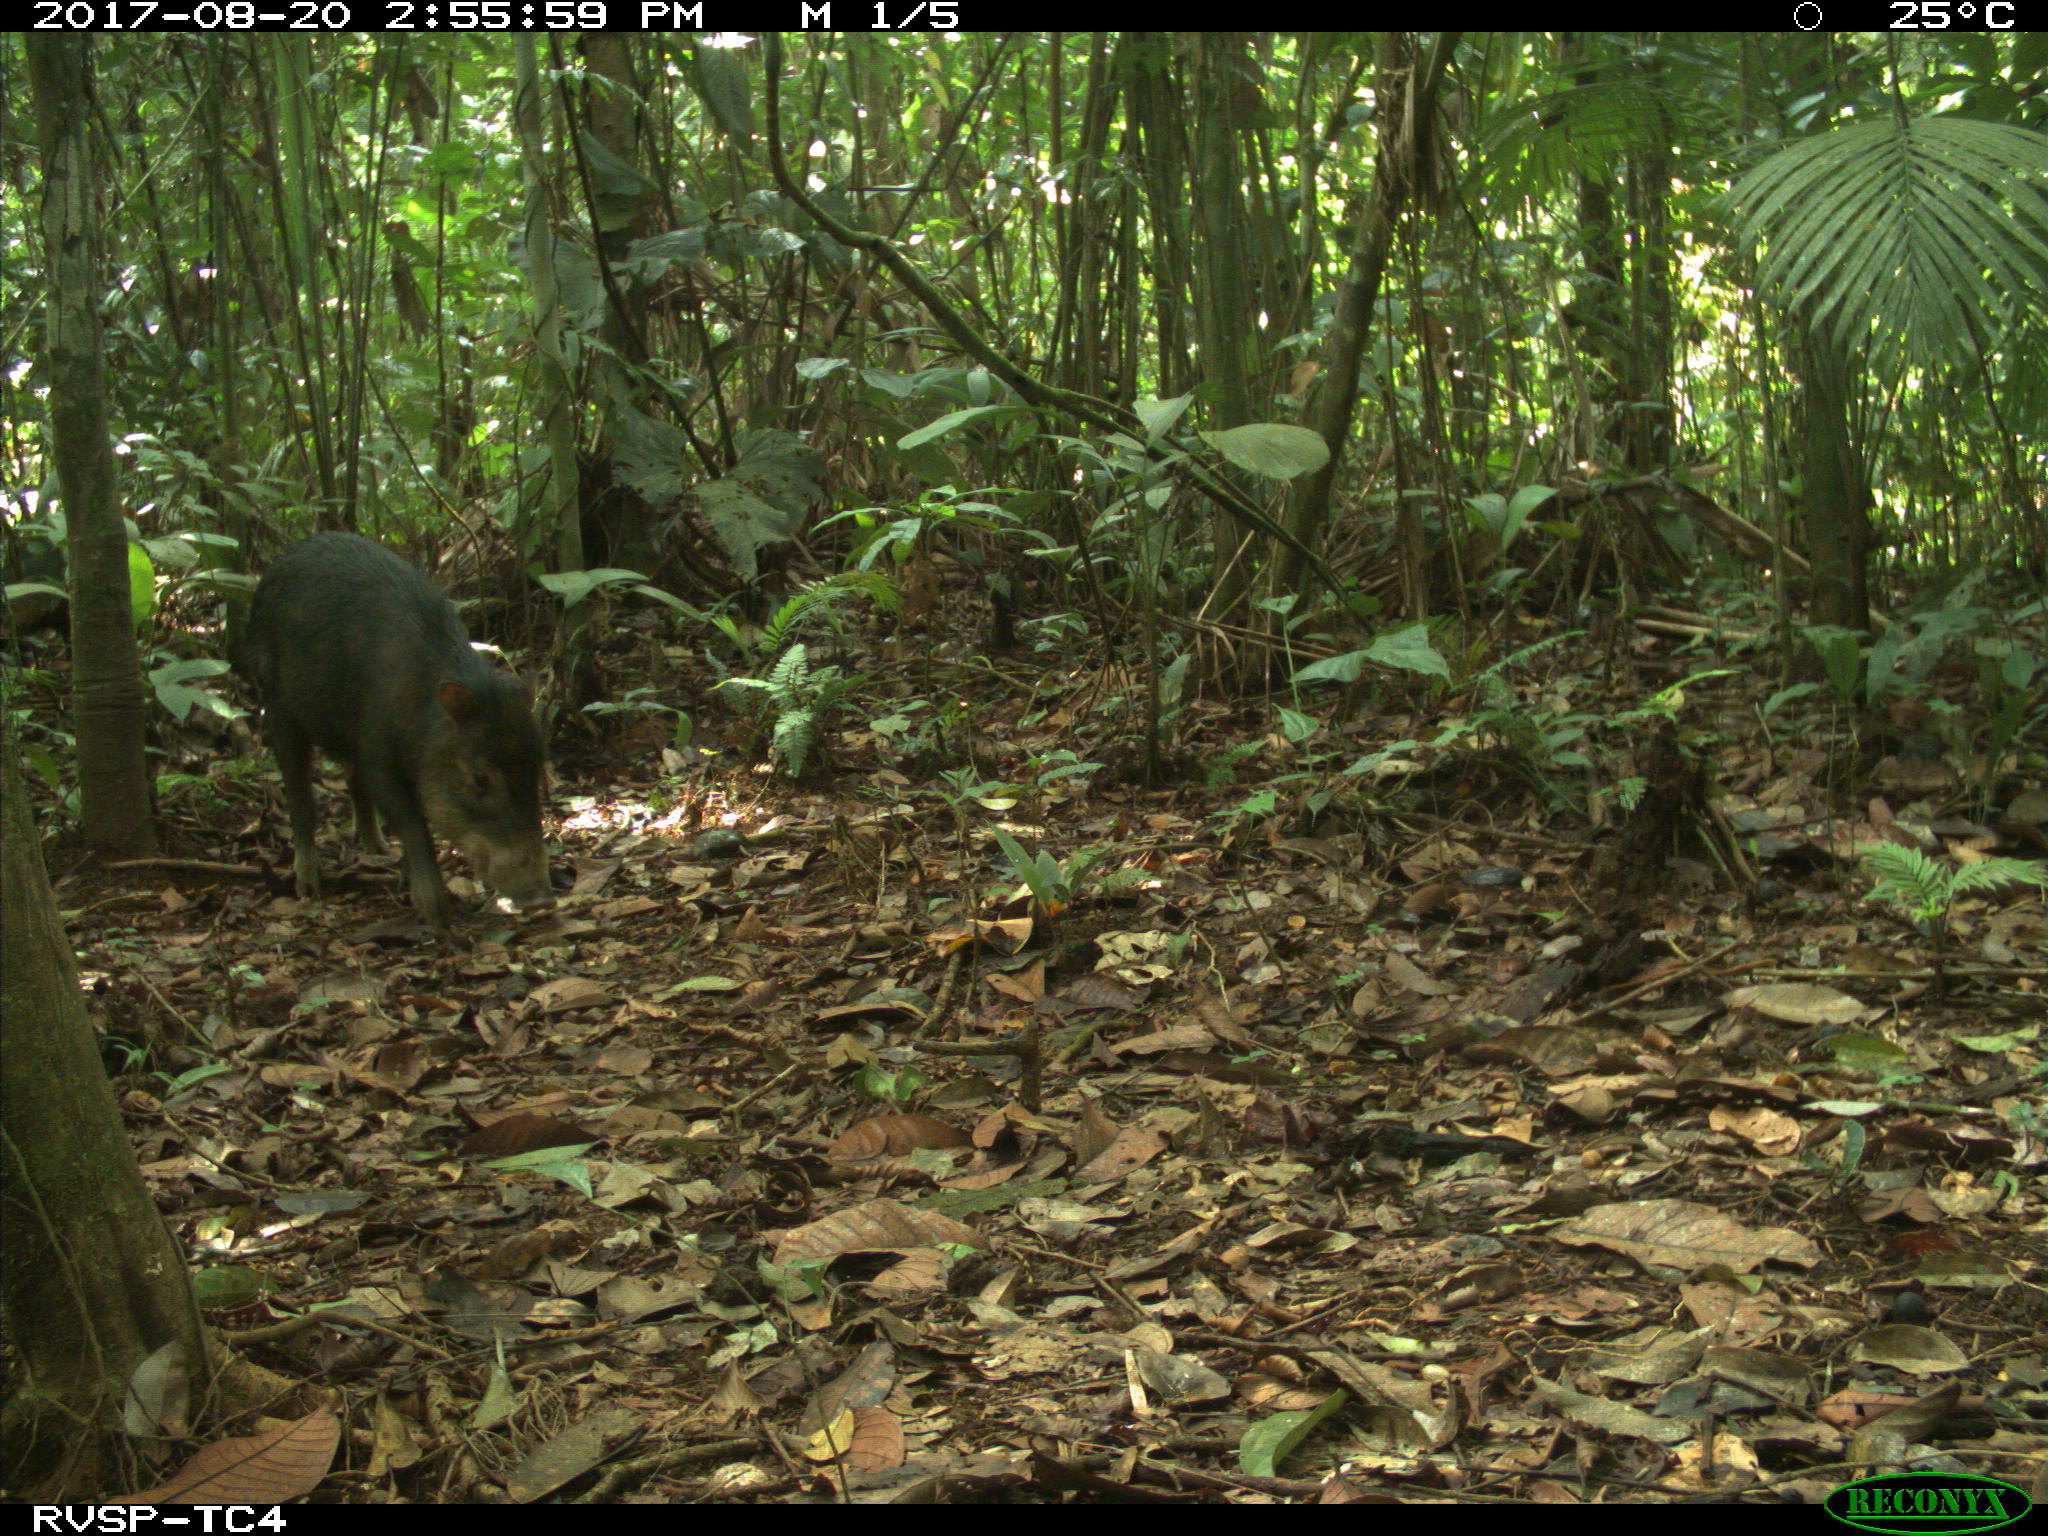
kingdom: Animalia
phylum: Chordata
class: Mammalia
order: Artiodactyla
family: Tayassuidae
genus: Tayassu
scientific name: Tayassu pecari
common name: White-lipped peccary
